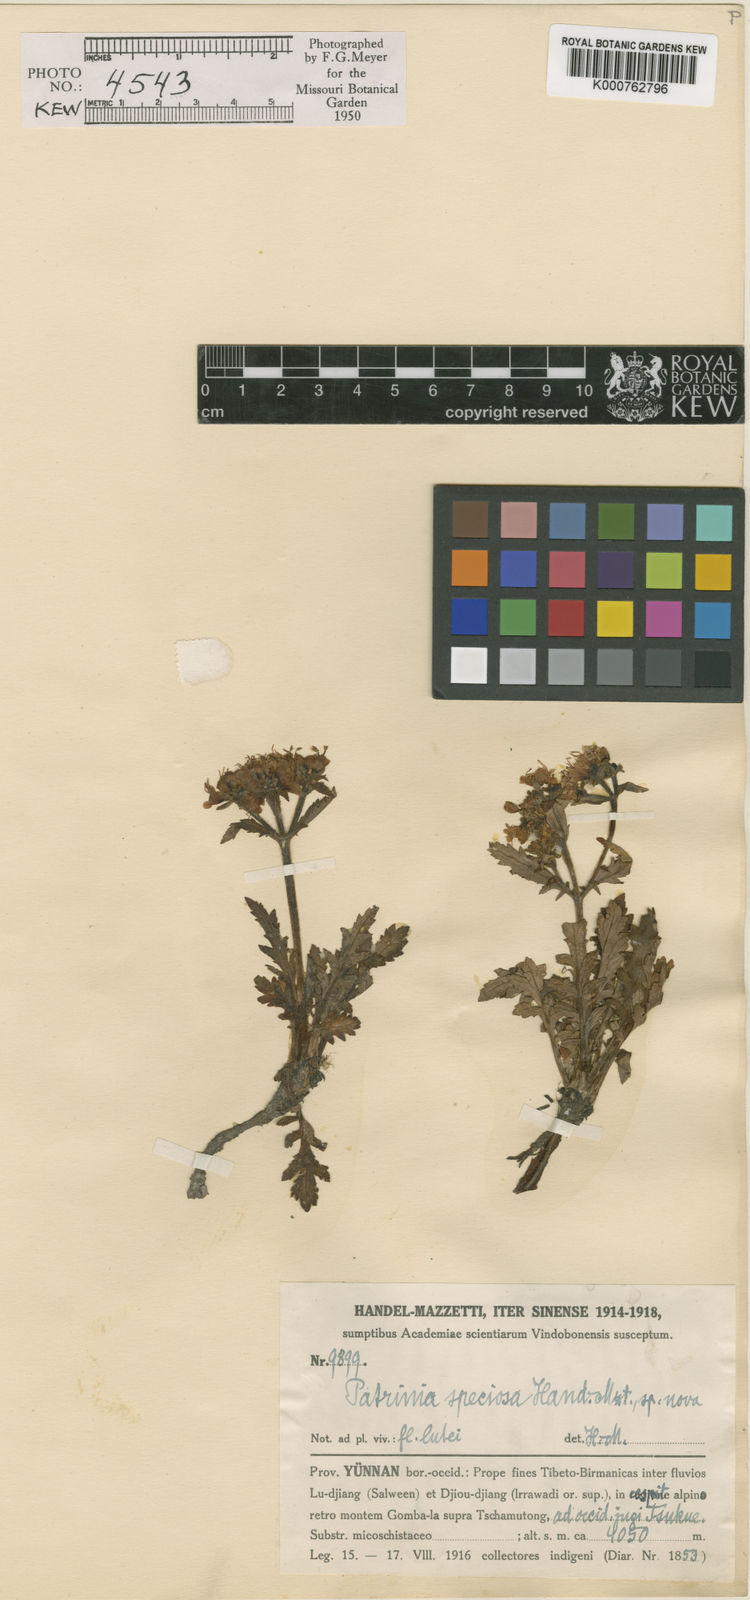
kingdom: Plantae
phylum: Tracheophyta
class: Magnoliopsida
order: Dipsacales
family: Caprifoliaceae
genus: Patrinia
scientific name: Patrinia speciosa
